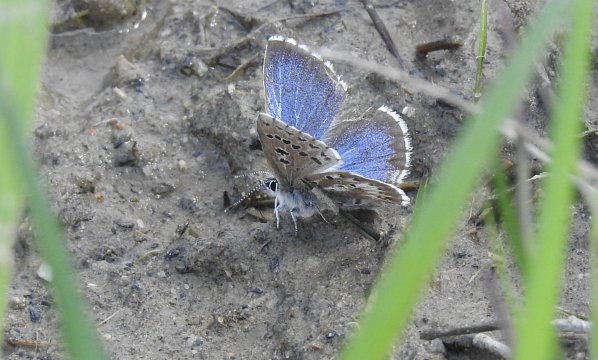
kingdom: Animalia
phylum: Arthropoda
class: Insecta
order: Lepidoptera
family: Lycaenidae
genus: Glaucopsyche
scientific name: Glaucopsyche piasus
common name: Arrowhead Blue
